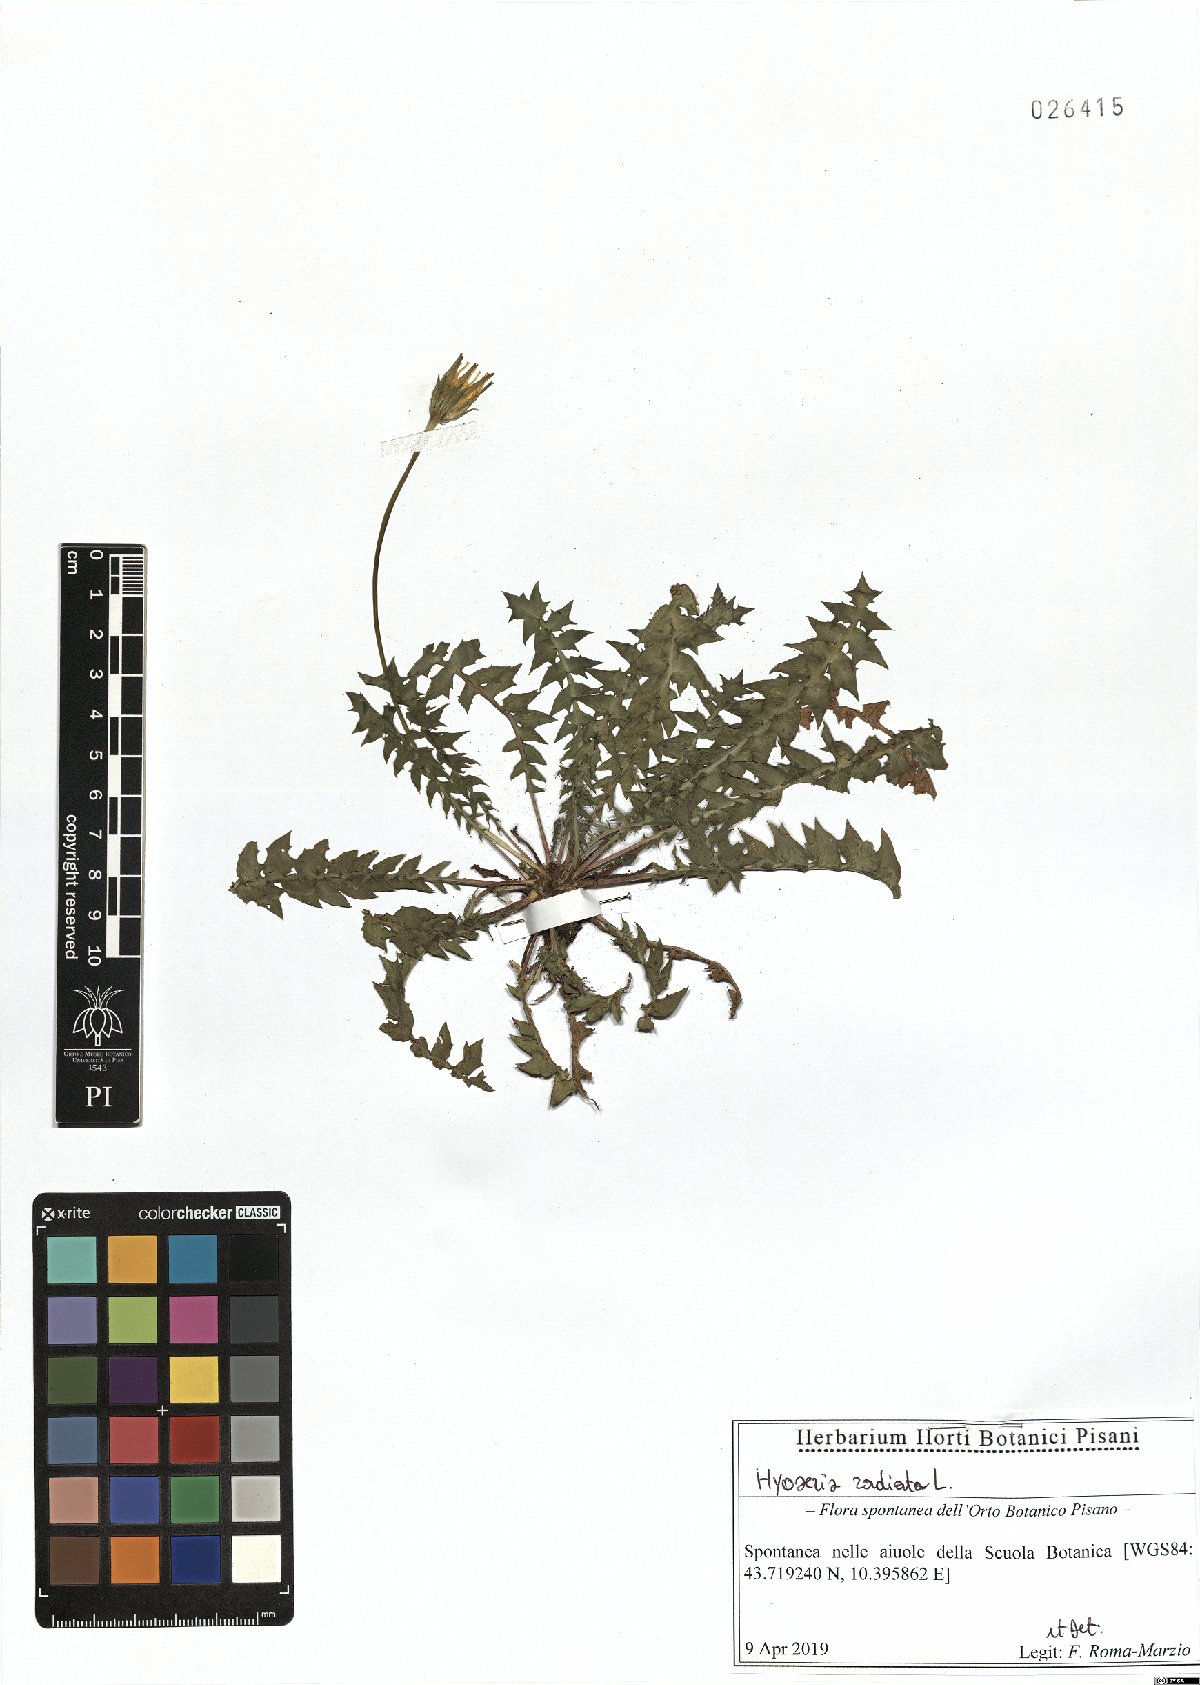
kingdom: Plantae
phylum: Tracheophyta
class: Magnoliopsida
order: Asterales
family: Asteraceae
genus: Hyoseris
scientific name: Hyoseris radiata
